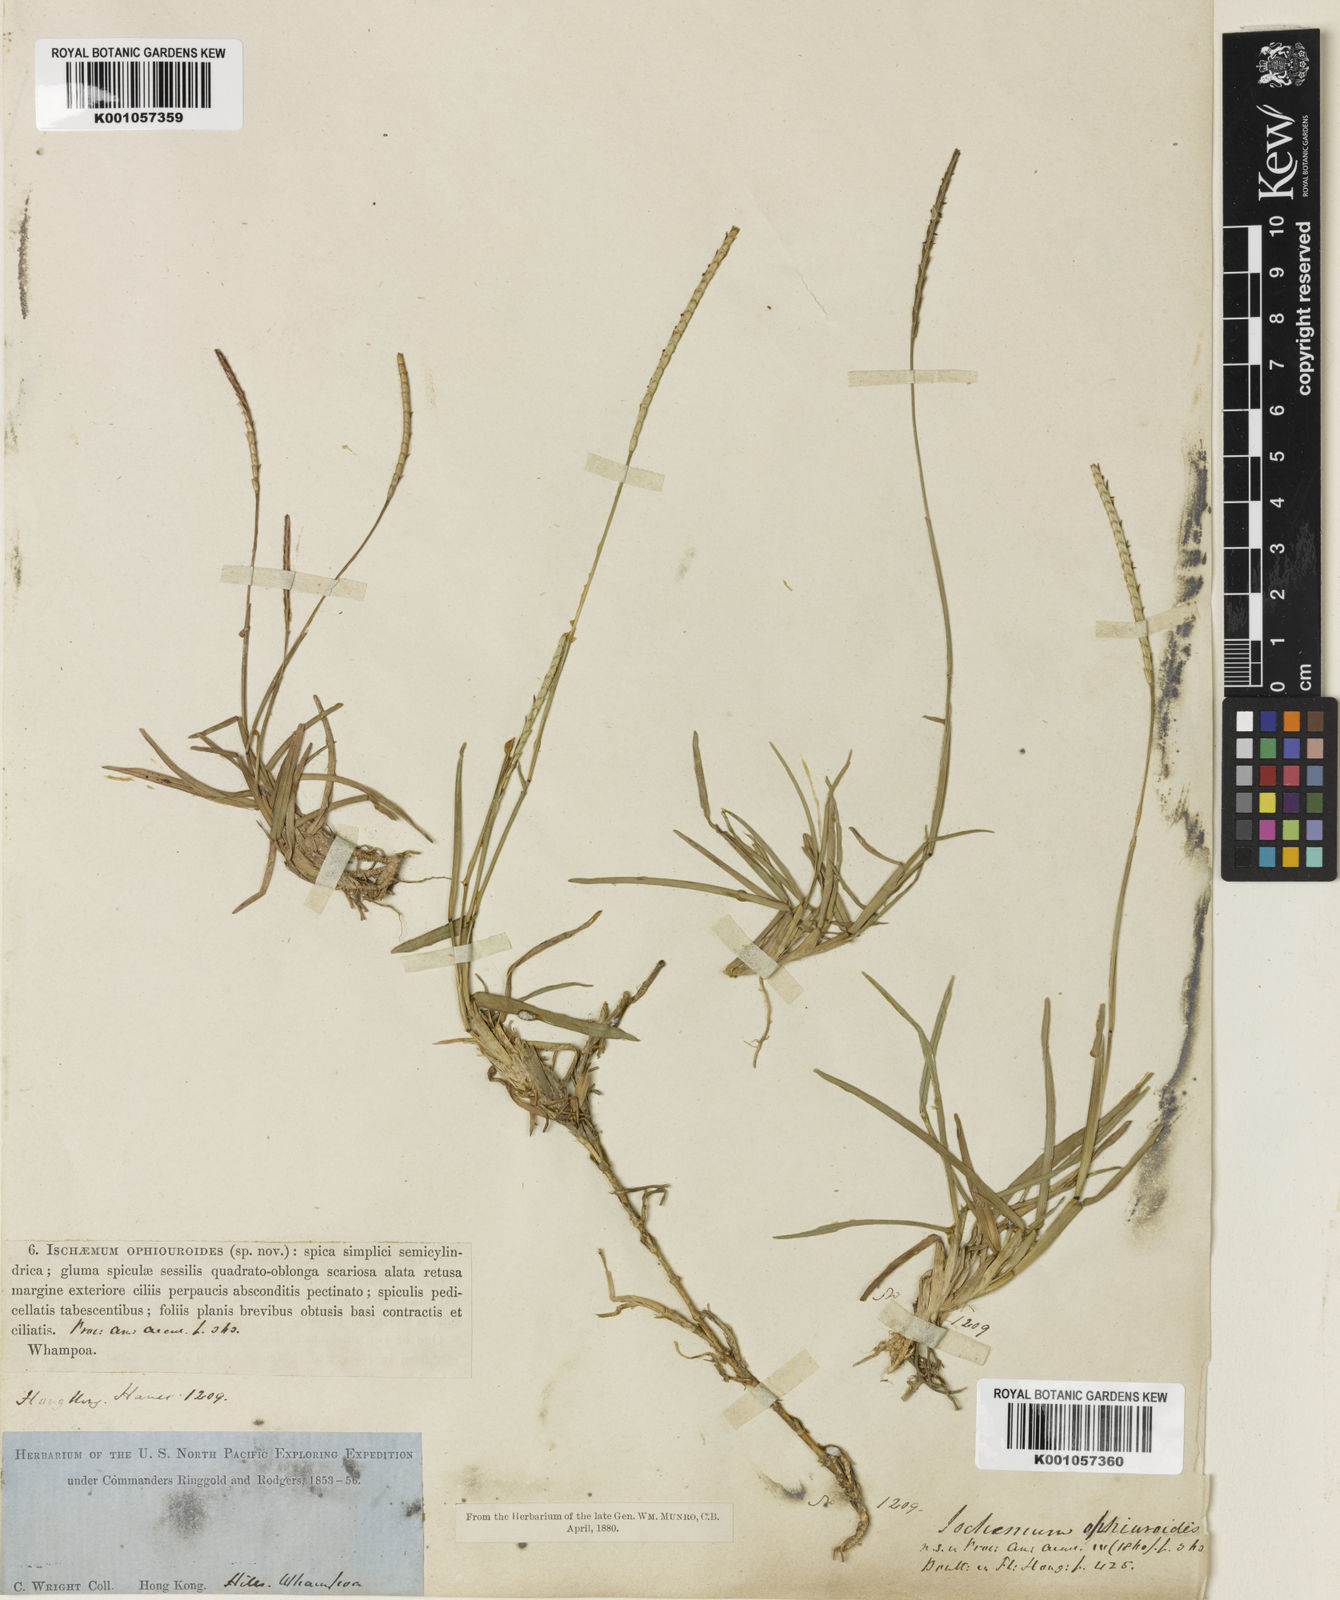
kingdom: Plantae
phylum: Tracheophyta
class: Liliopsida
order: Poales
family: Poaceae
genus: Eremochloa
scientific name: Eremochloa ophiuroides
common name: Centipede grass
